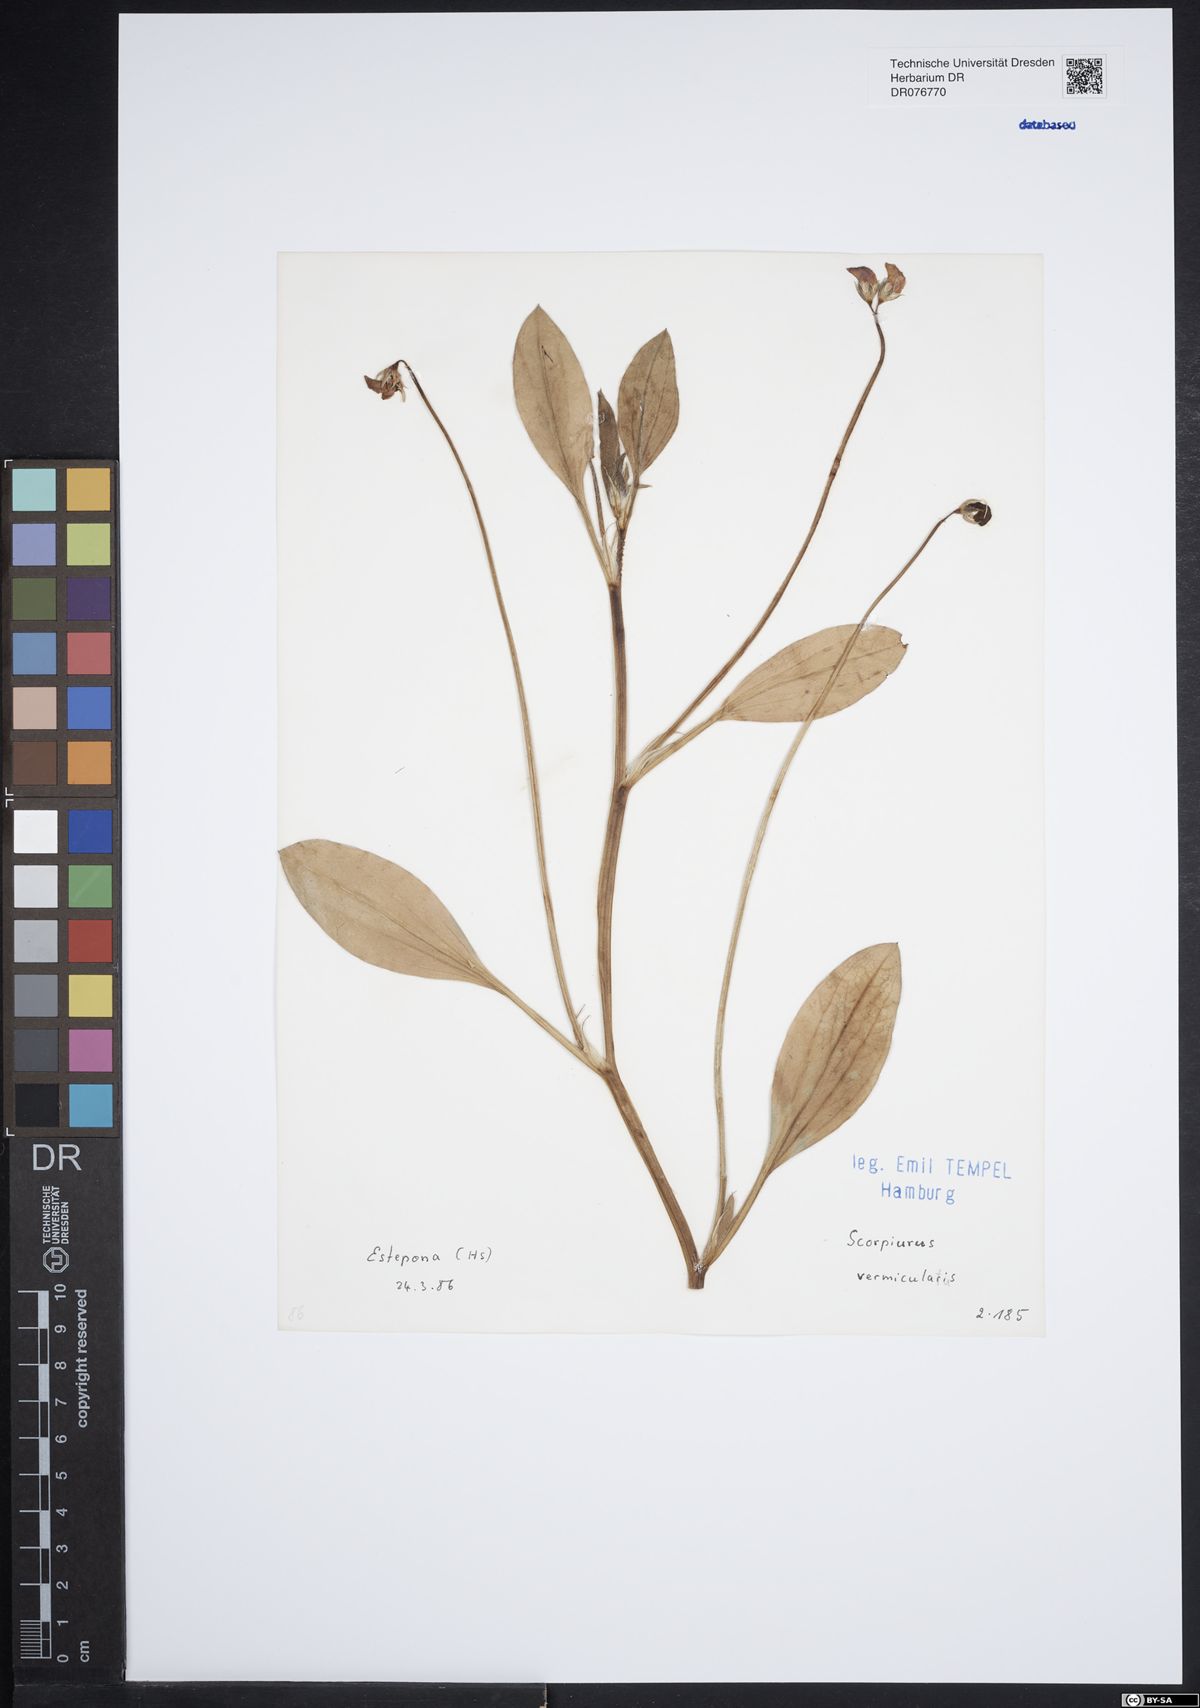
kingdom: Plantae
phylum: Tracheophyta
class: Magnoliopsida
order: Fabales
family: Fabaceae
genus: Scorpiurus
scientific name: Scorpiurus vermiculatus
